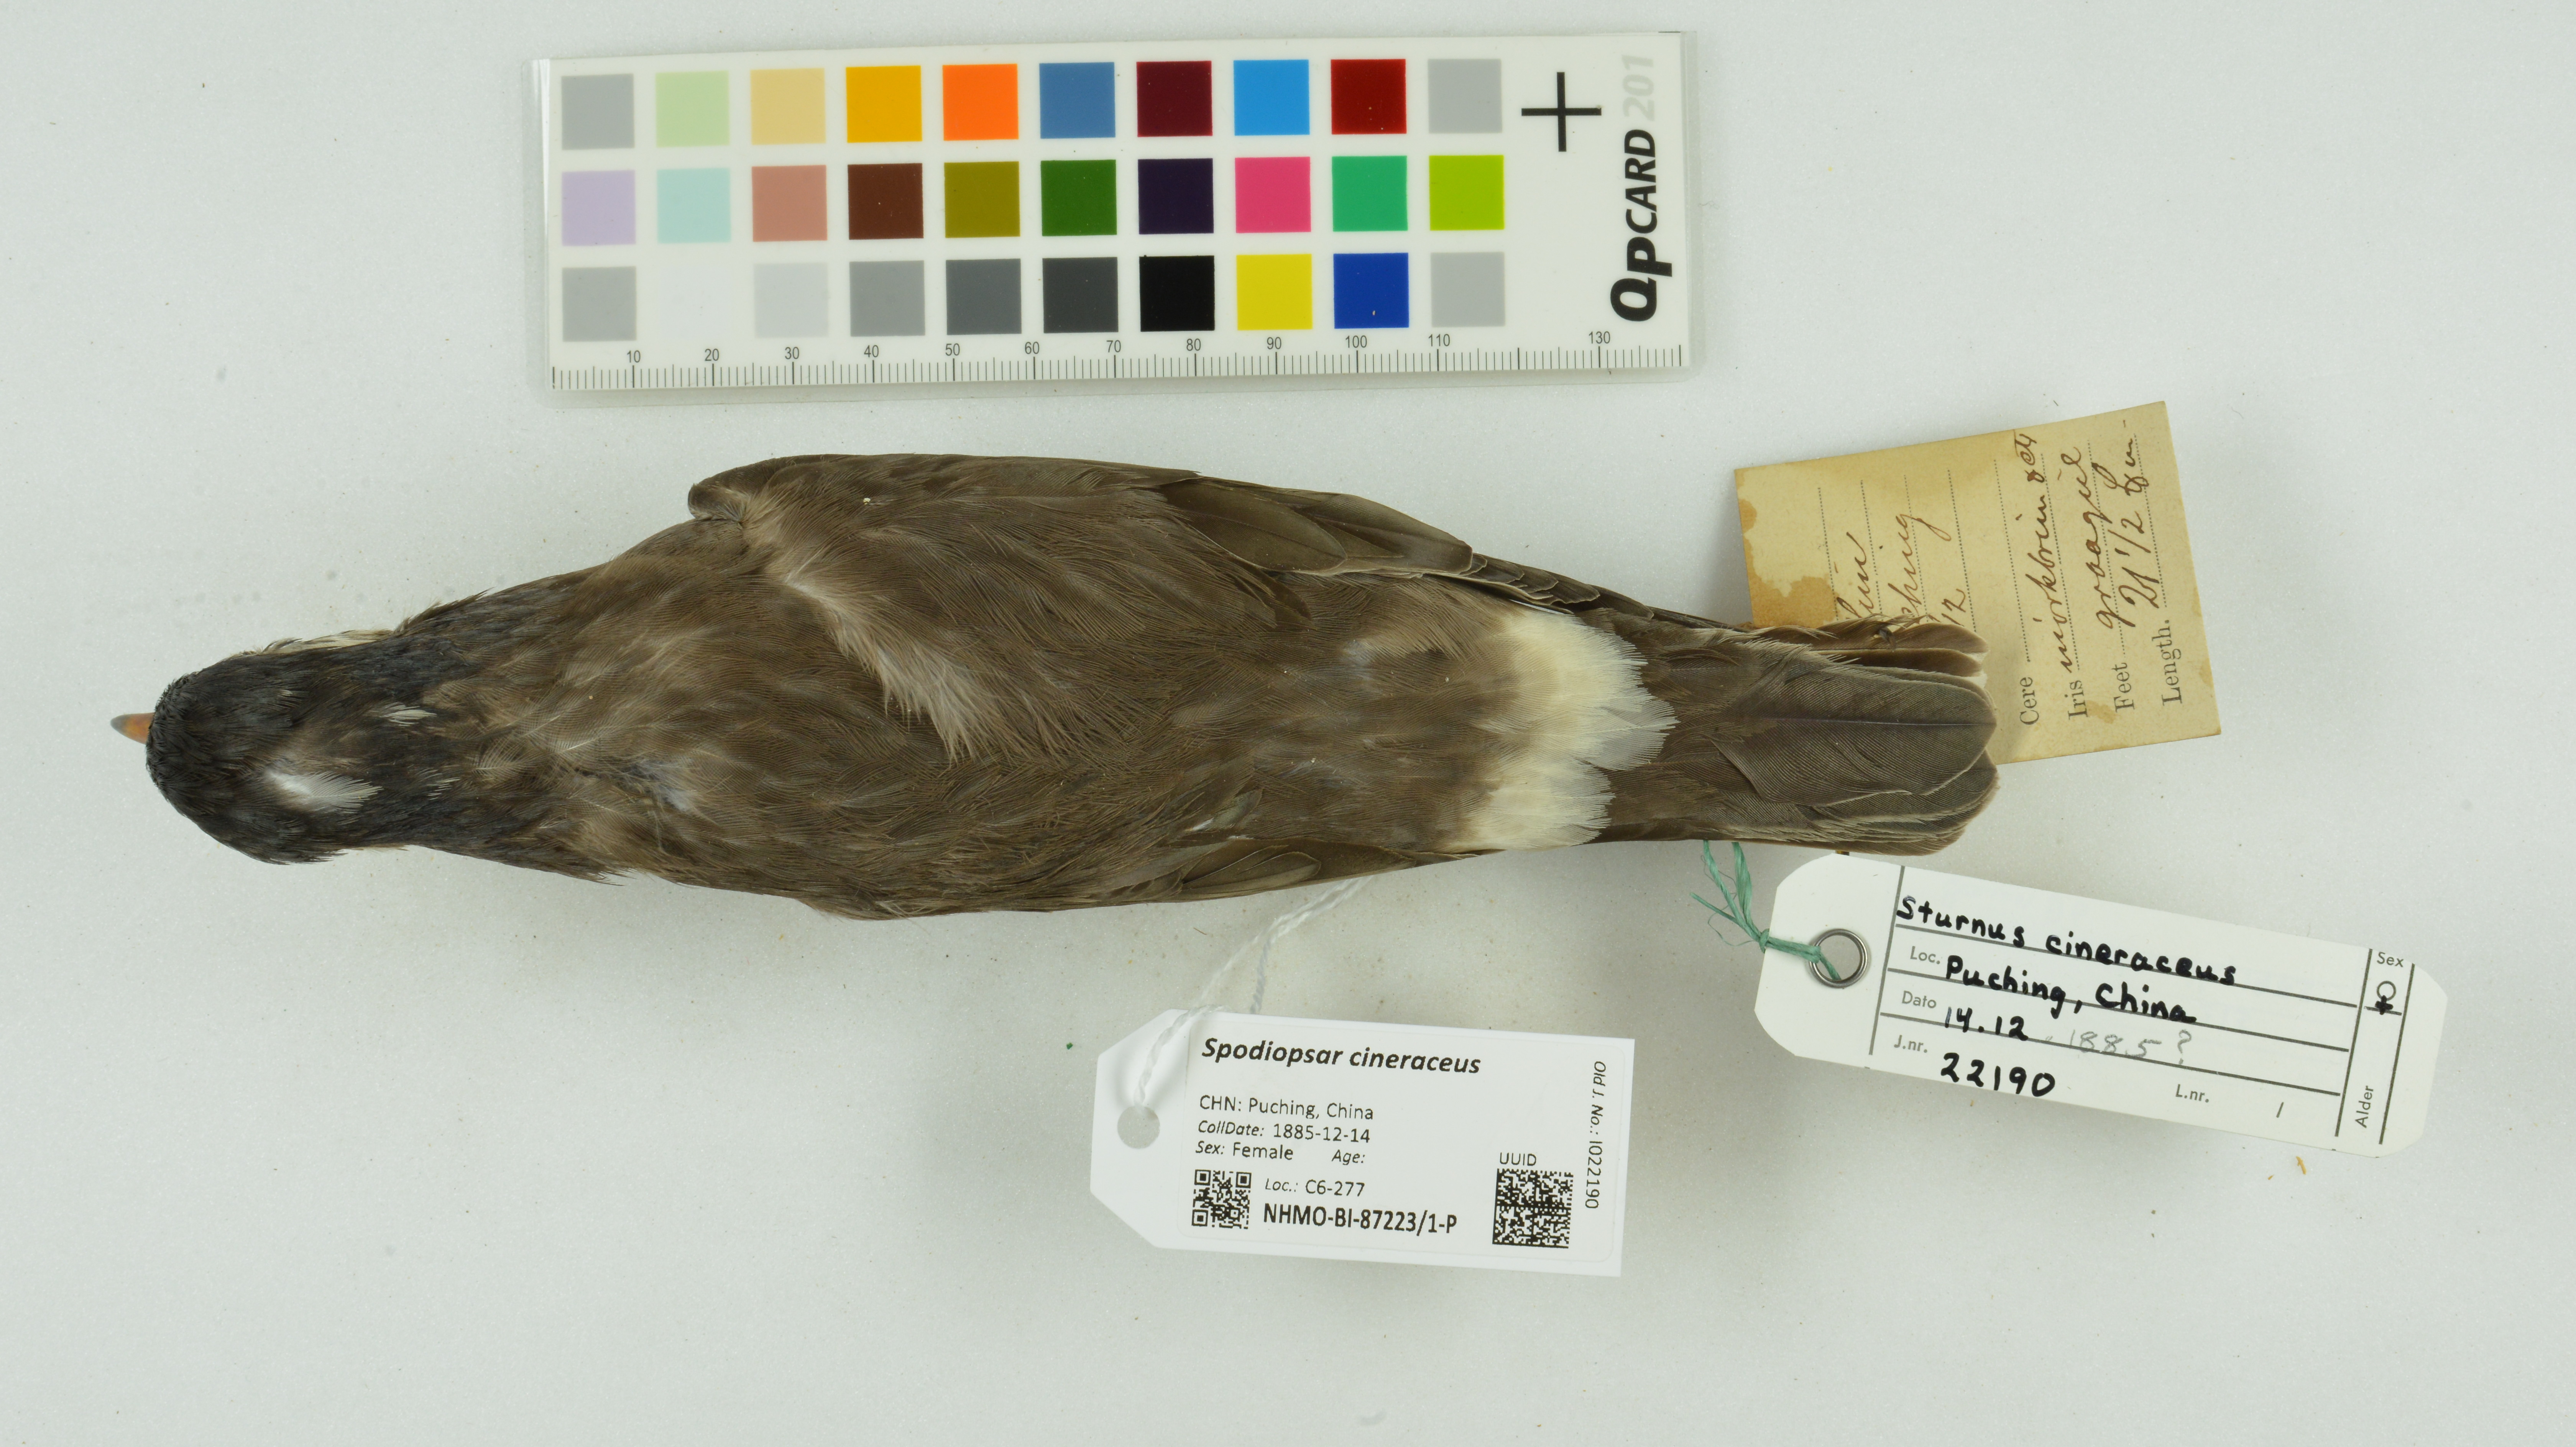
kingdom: Animalia
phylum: Chordata
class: Aves
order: Passeriformes
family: Sturnidae
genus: Spodiopsar
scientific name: Spodiopsar cineraceus
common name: White-cheeked starling
